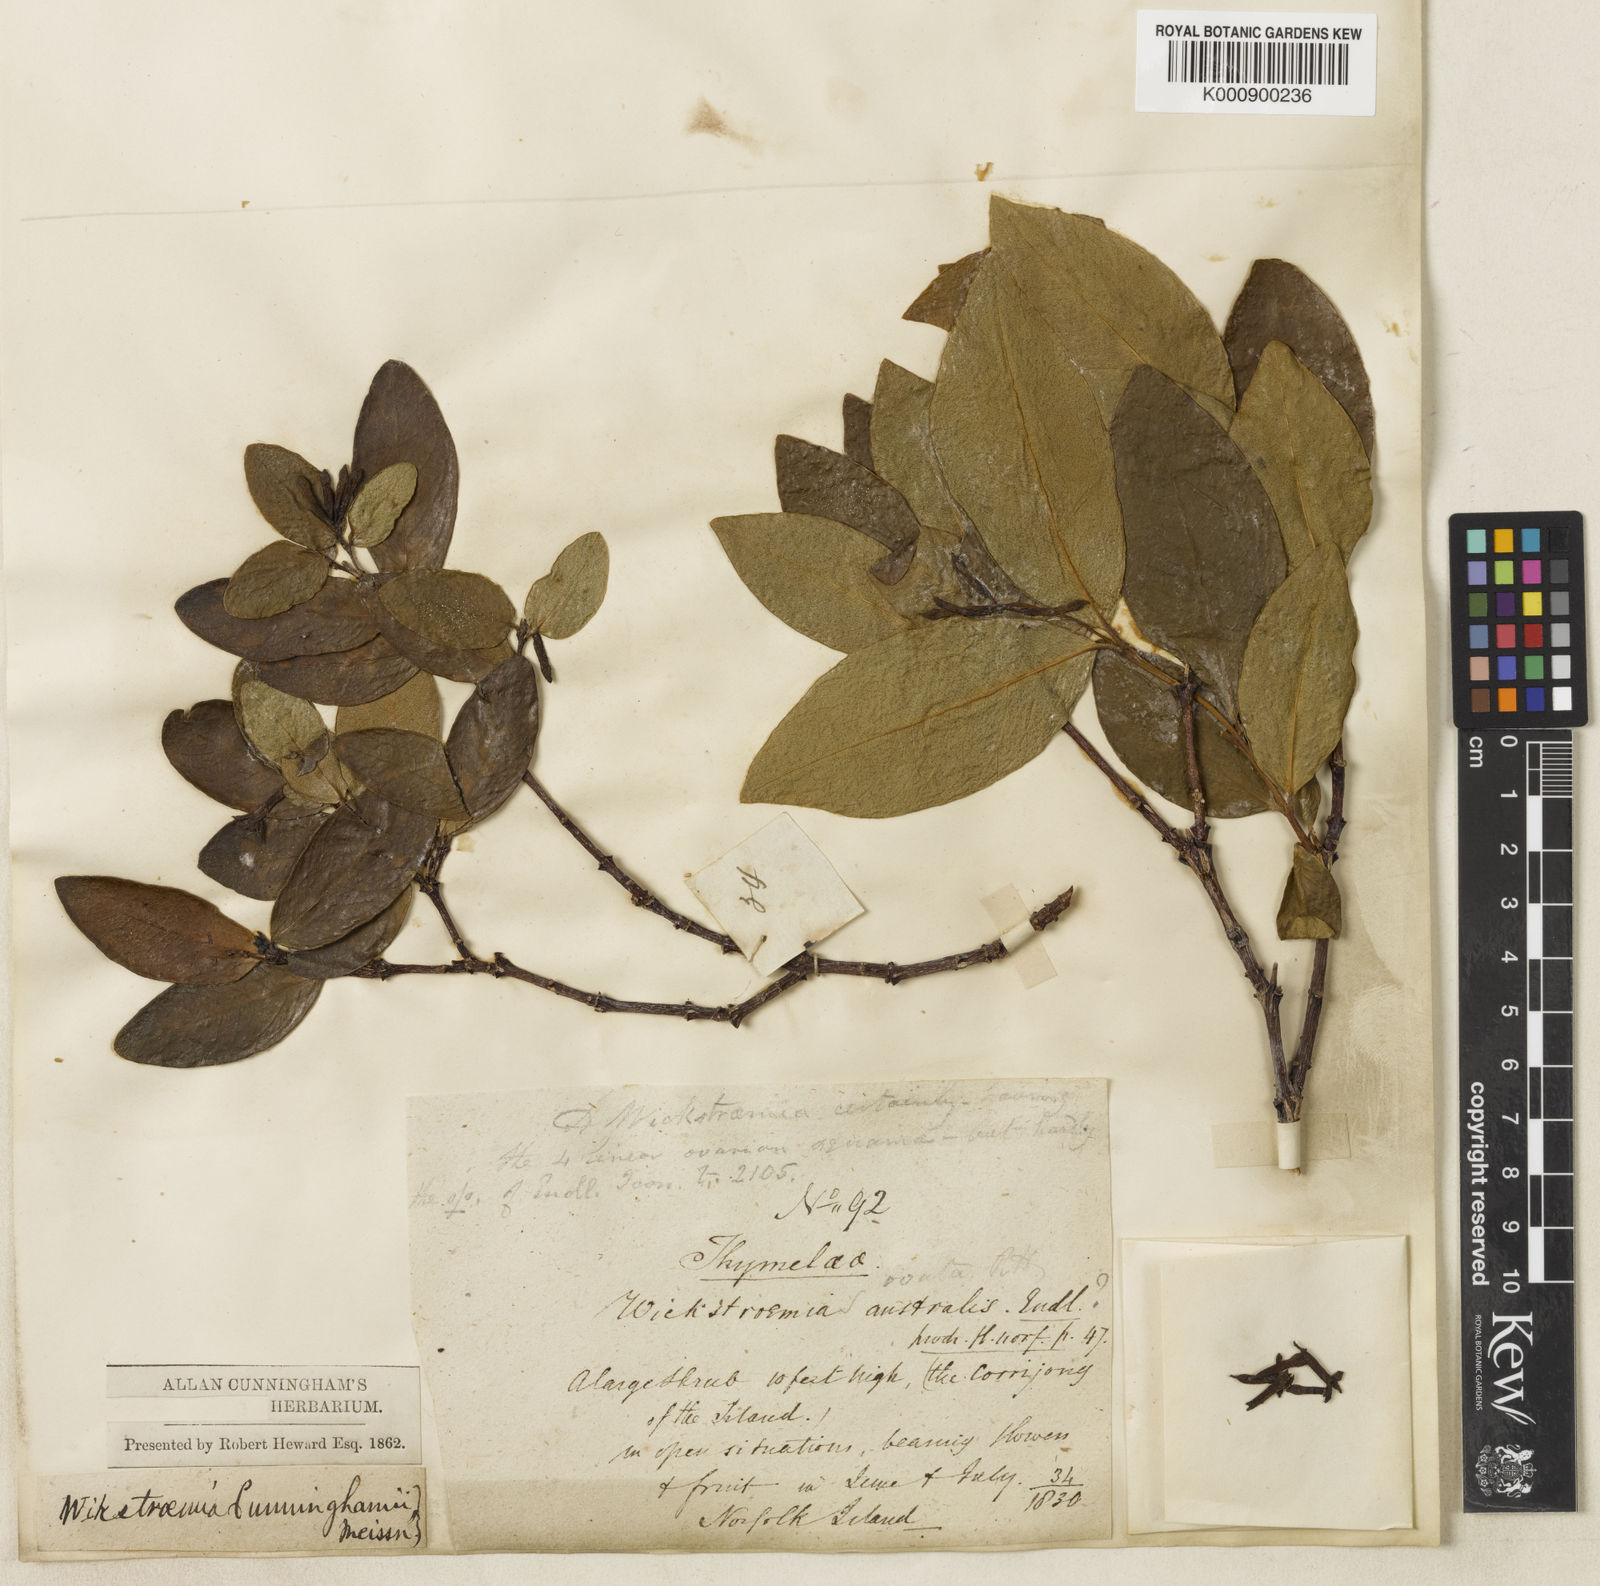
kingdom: Plantae
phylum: Tracheophyta
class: Magnoliopsida
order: Malvales
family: Thymelaeaceae
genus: Wikstroemia
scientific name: Wikstroemia australis
